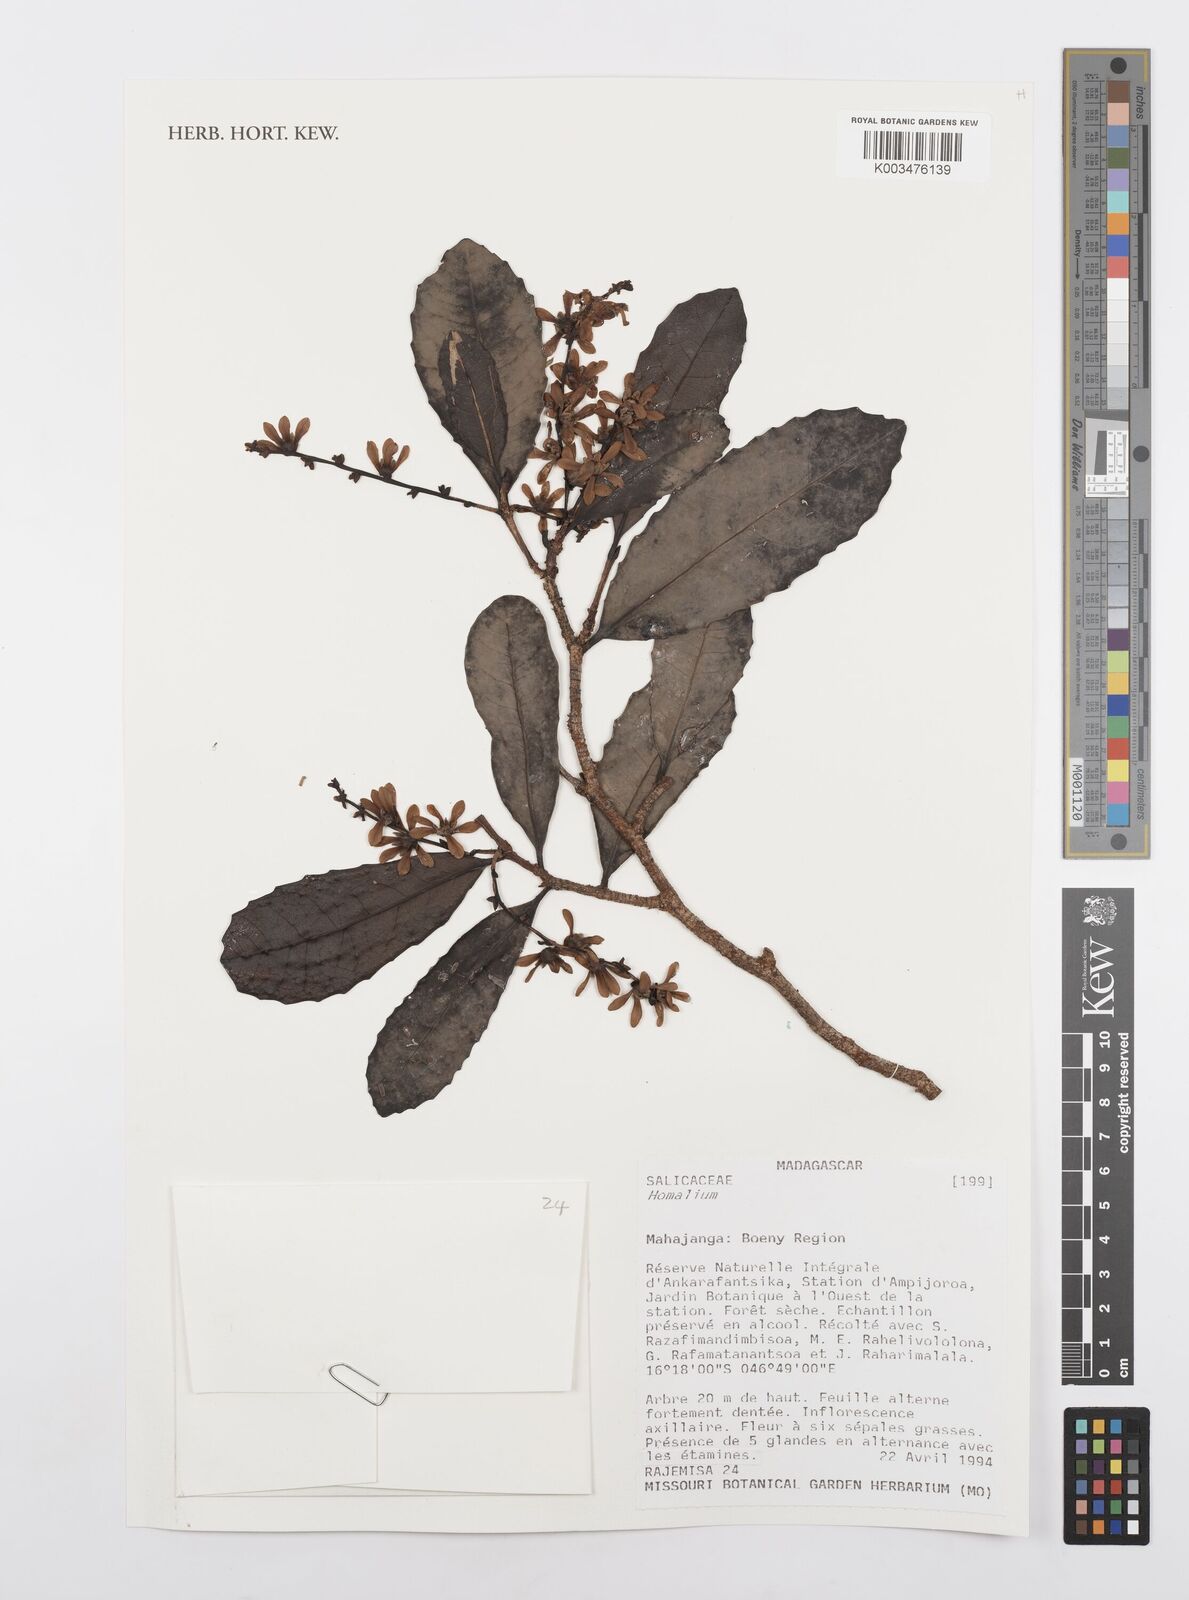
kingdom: Plantae
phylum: Tracheophyta
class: Magnoliopsida
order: Malpighiales
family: Salicaceae
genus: Homalium
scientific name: Homalium
